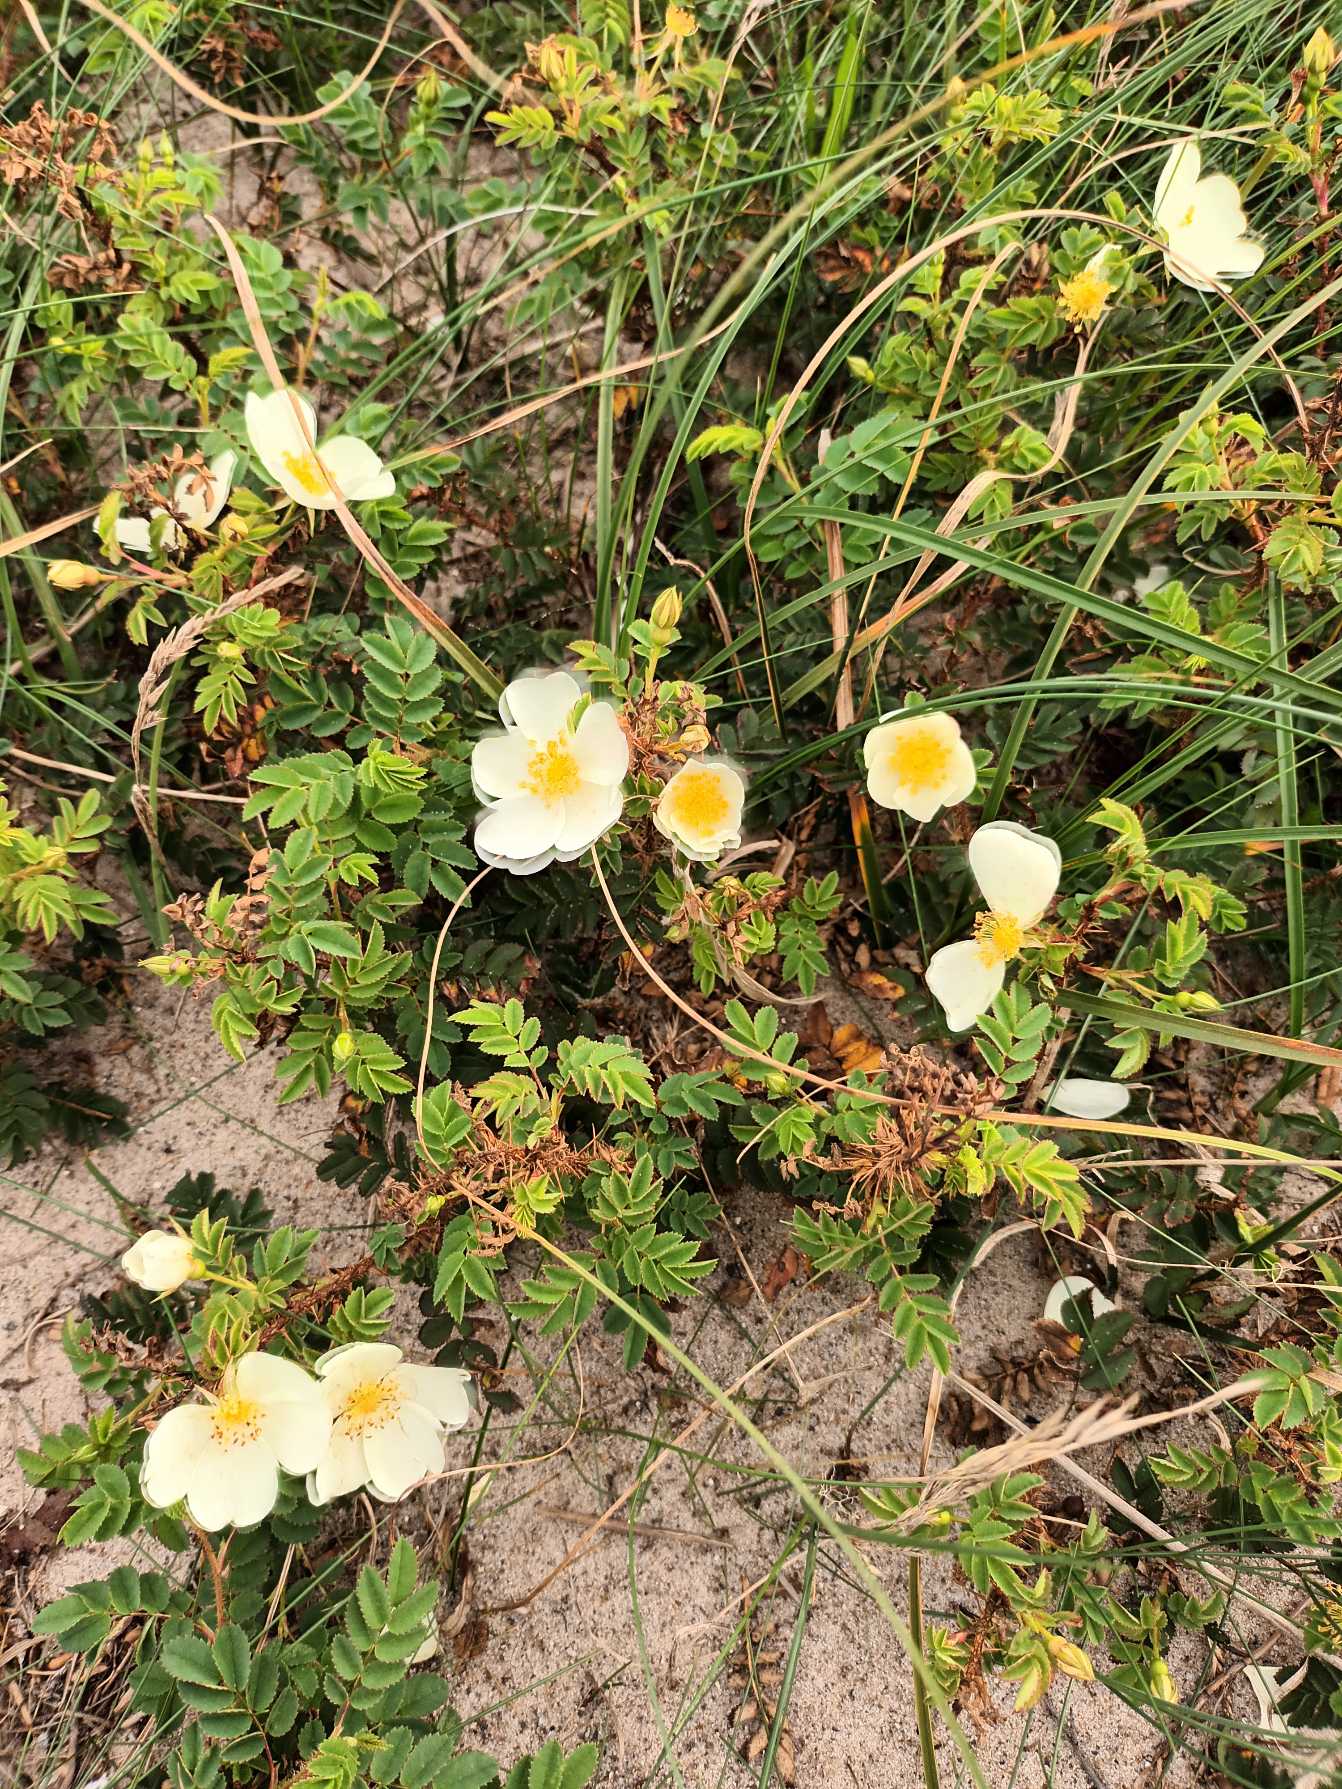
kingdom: Plantae
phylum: Tracheophyta
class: Magnoliopsida
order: Rosales
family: Rosaceae
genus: Rosa
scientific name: Rosa spinosissima
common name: Klit-rose
